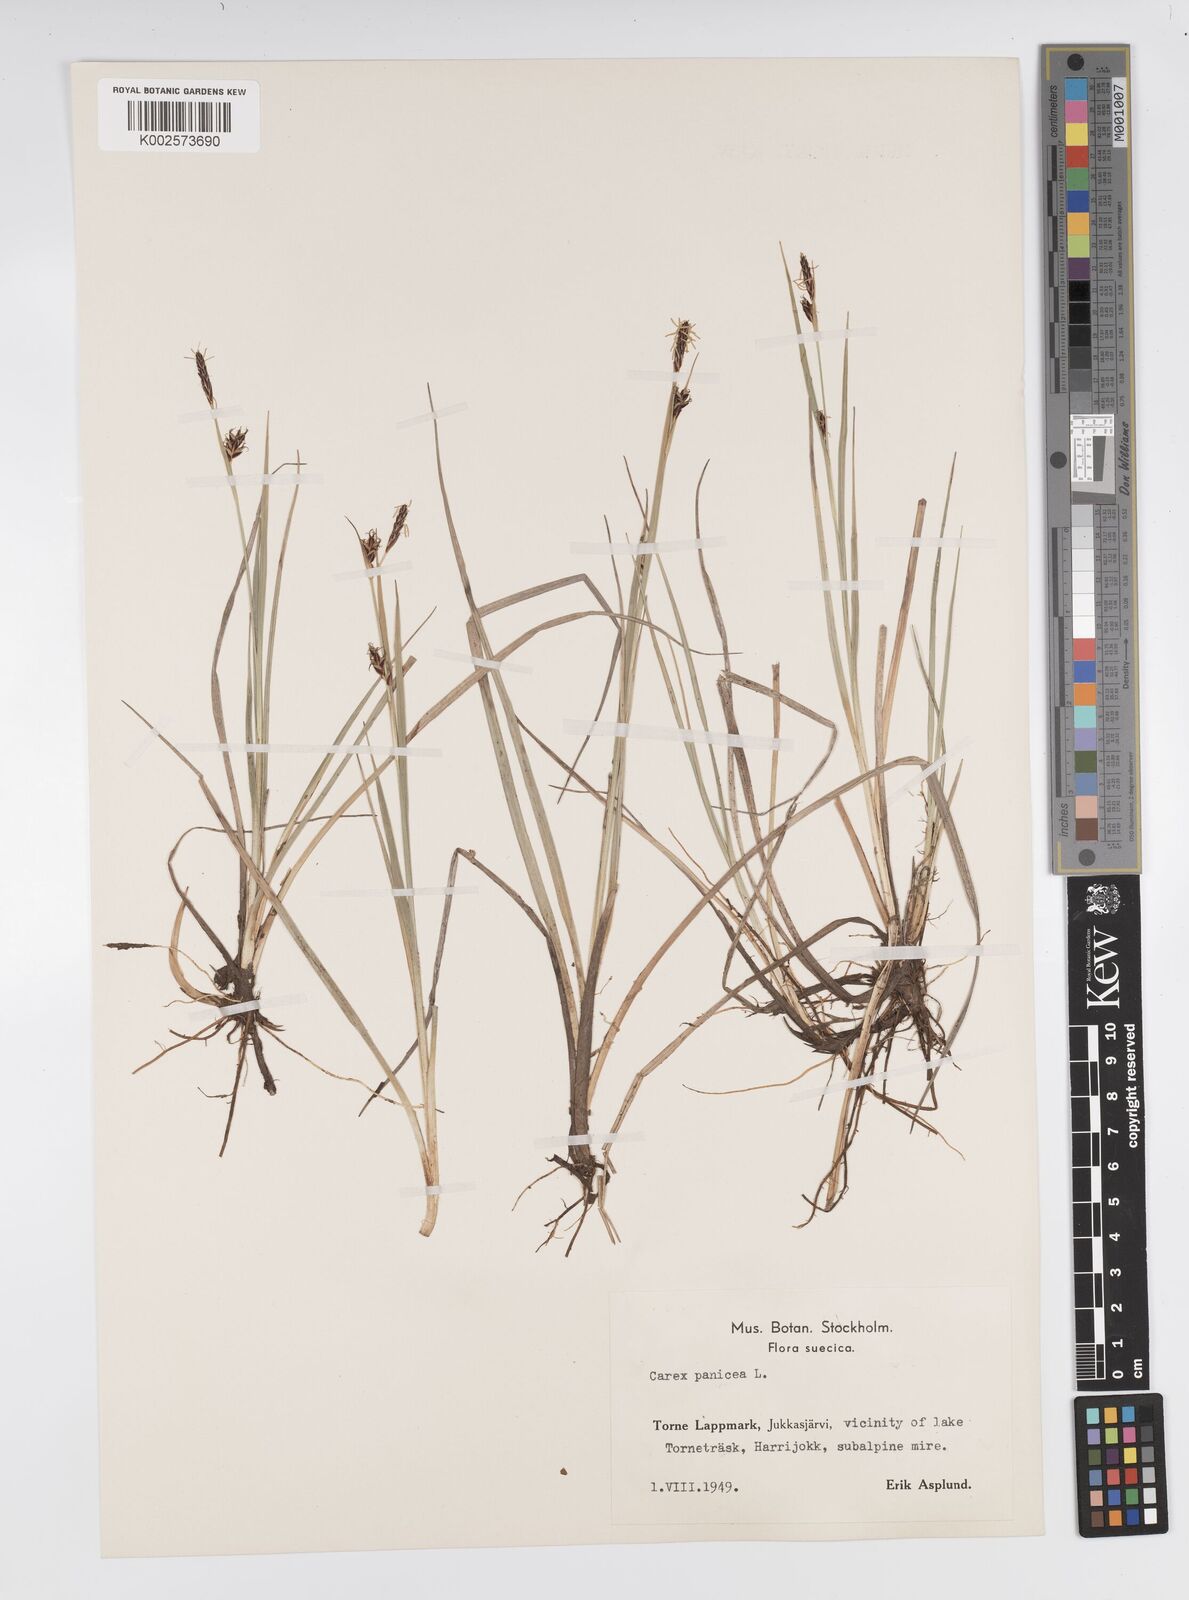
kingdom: Plantae
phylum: Tracheophyta
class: Liliopsida
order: Poales
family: Cyperaceae
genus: Carex
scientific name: Carex panicea
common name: Carnation sedge
